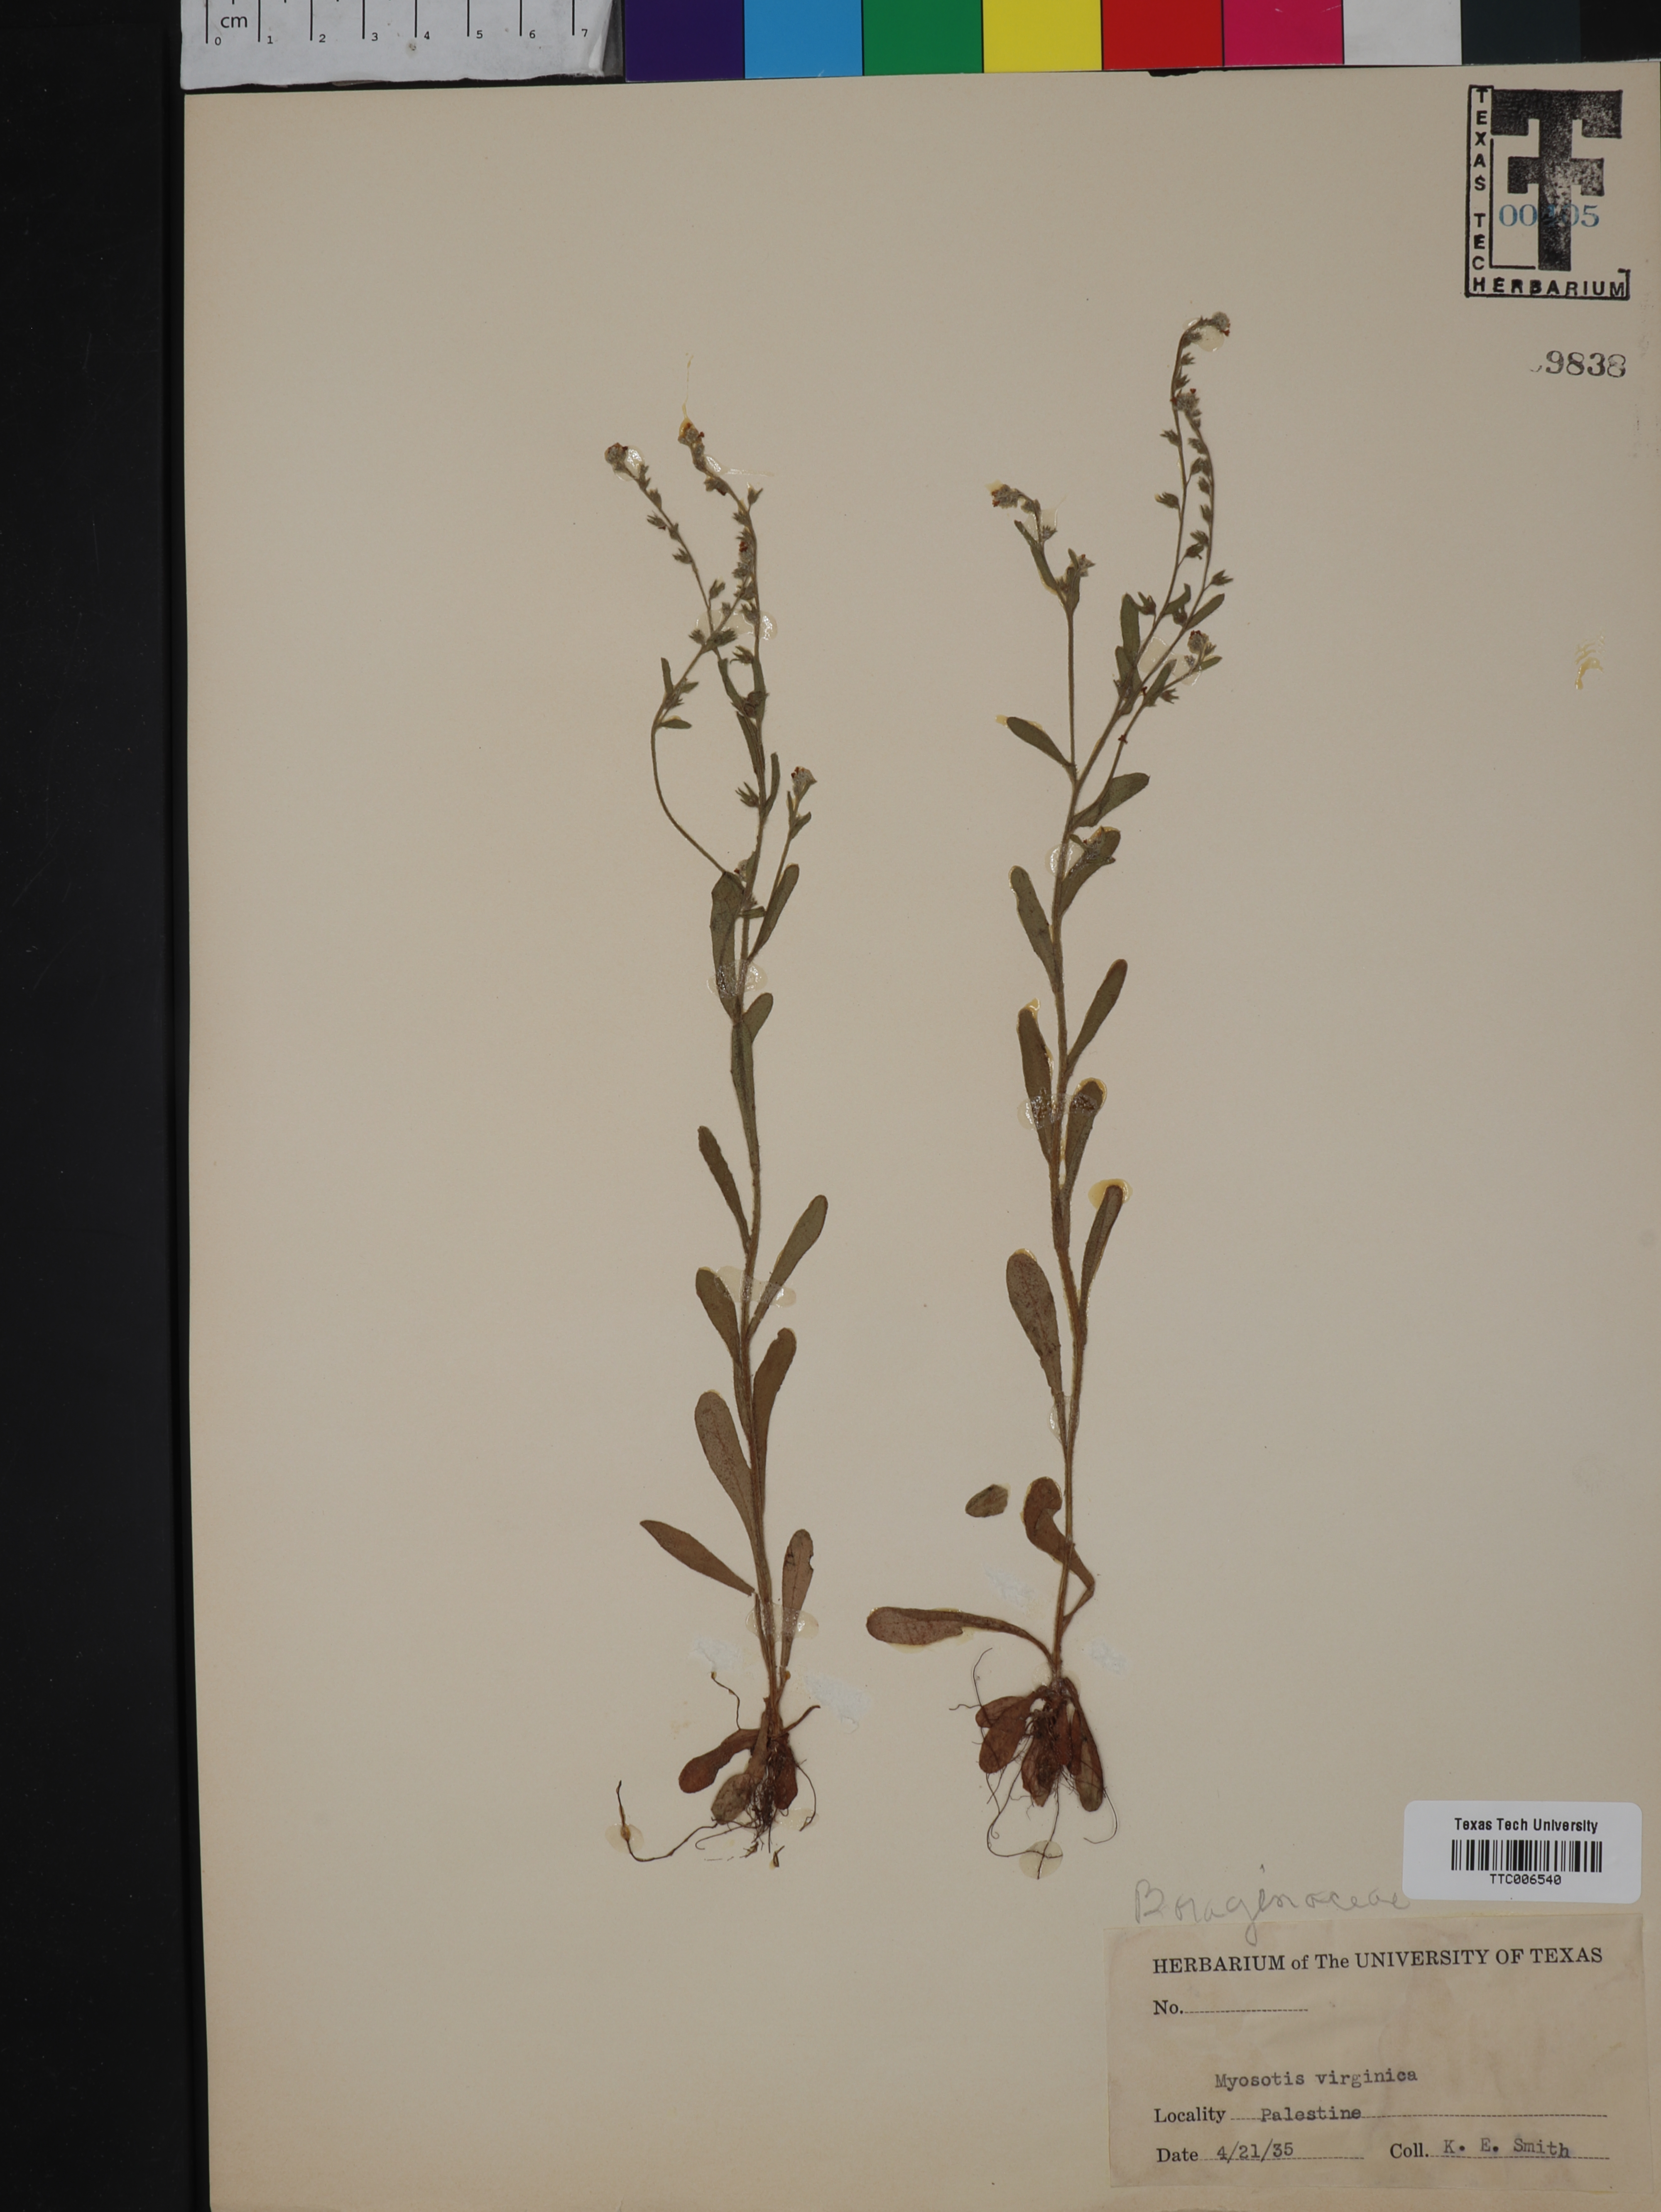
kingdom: Plantae
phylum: Tracheophyta
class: Magnoliopsida
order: Boraginales
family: Boraginaceae
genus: Myosotis
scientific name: Myosotis virginica
